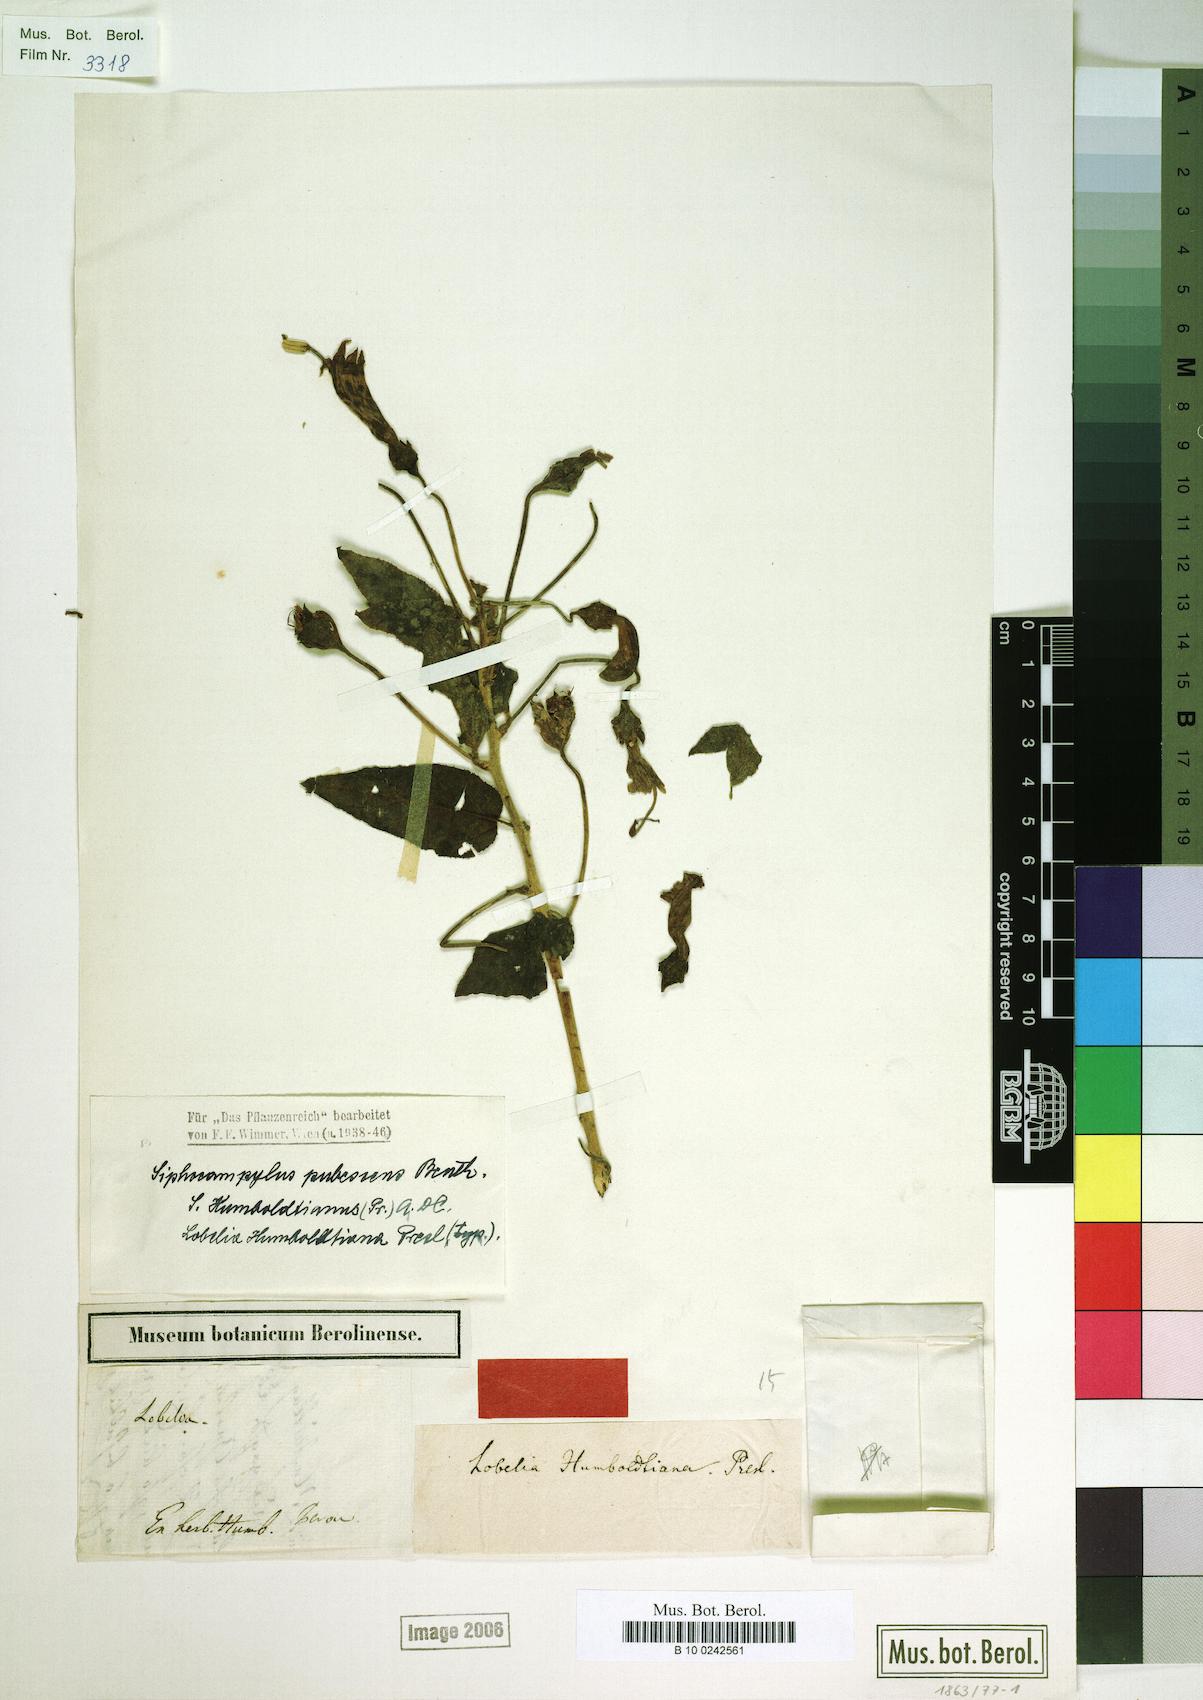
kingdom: Plantae
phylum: Tracheophyta
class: Magnoliopsida
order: Asterales
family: Campanulaceae
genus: Siphocampylus
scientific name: Siphocampylus humboldtianus
